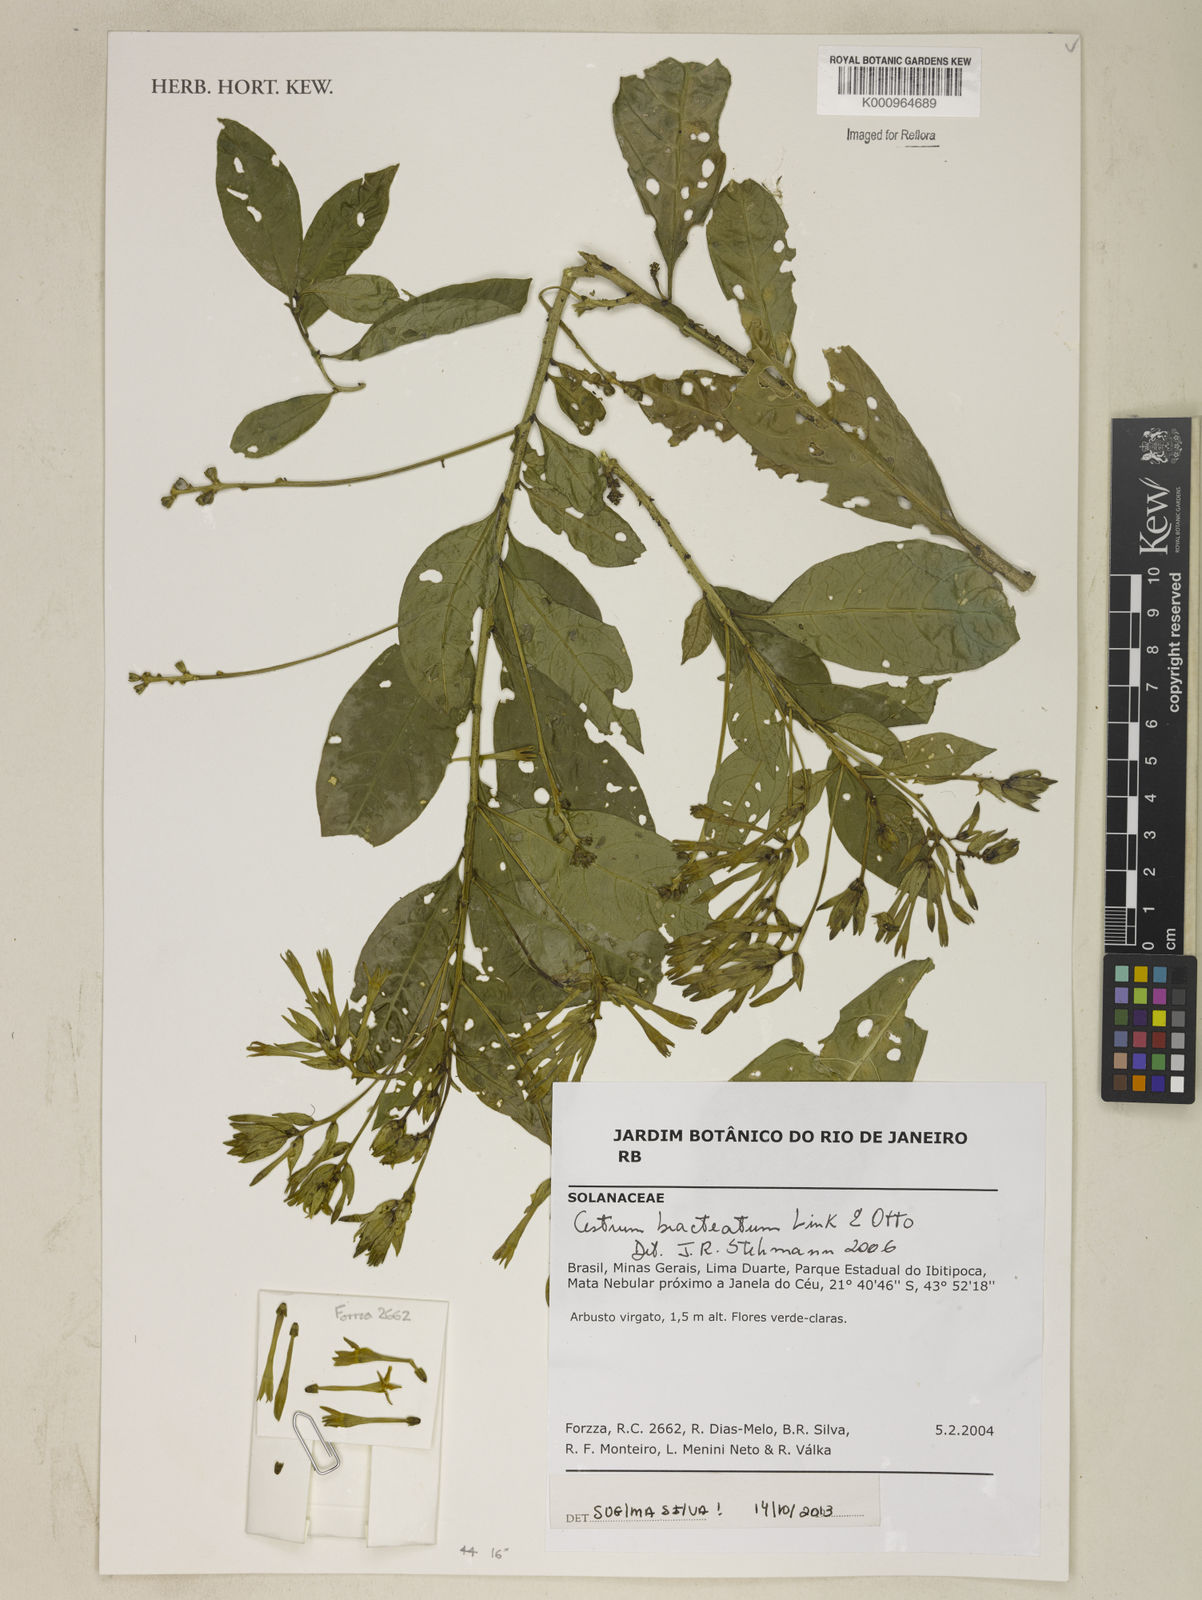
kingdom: Plantae
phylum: Tracheophyta
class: Magnoliopsida
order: Solanales
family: Solanaceae
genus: Cestrum
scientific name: Cestrum bracteatum
